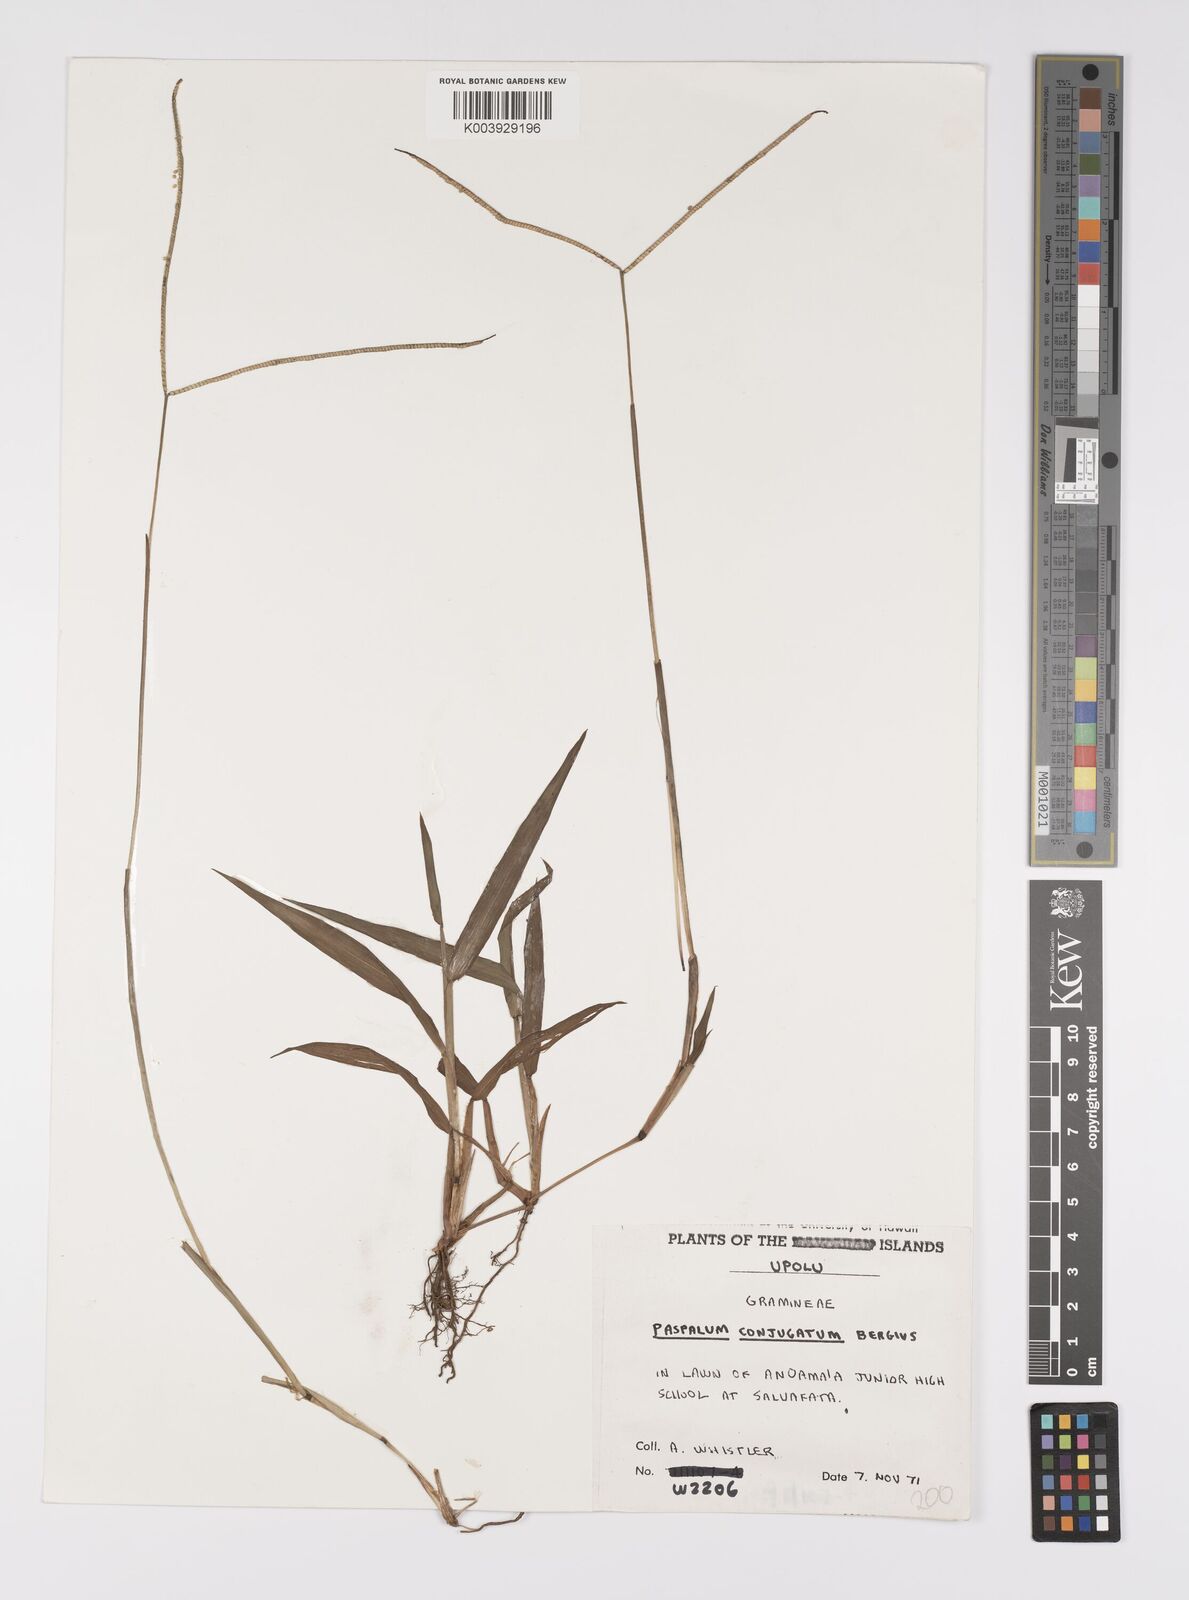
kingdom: Plantae
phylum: Tracheophyta
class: Liliopsida
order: Poales
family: Poaceae
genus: Paspalum
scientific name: Paspalum conjugatum
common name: Hilograss
